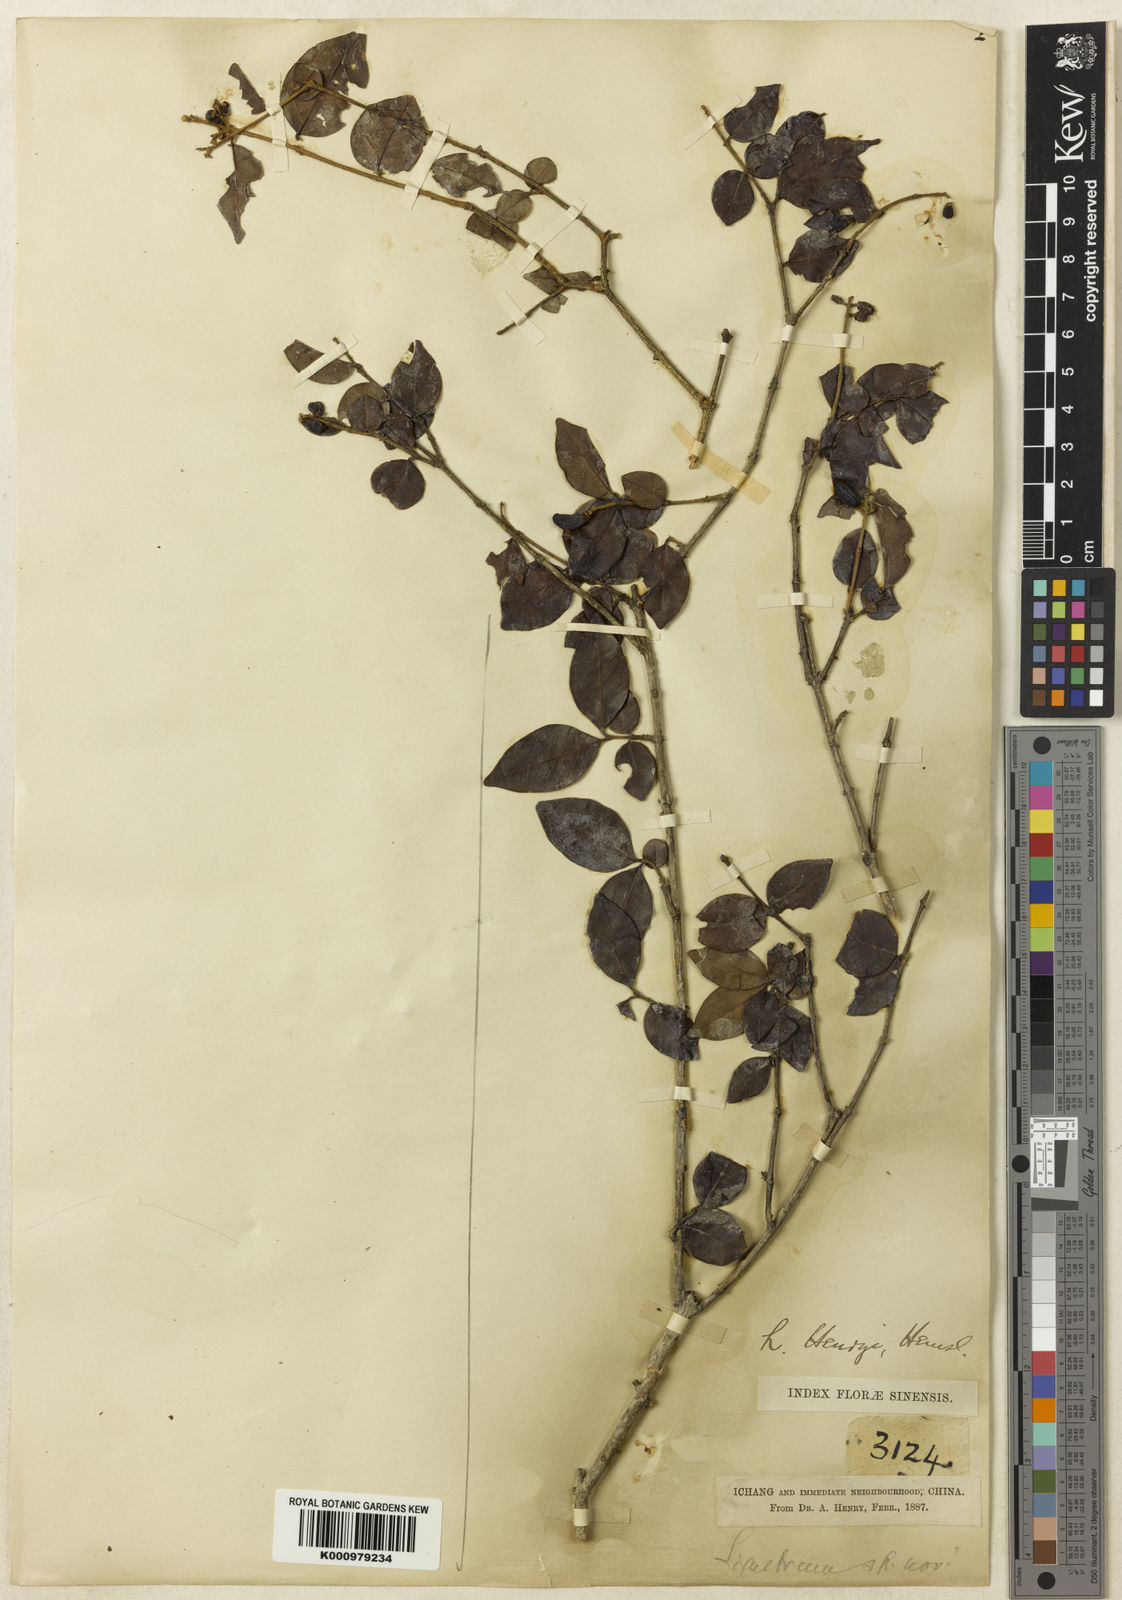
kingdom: Plantae
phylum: Tracheophyta
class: Magnoliopsida
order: Lamiales
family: Oleaceae
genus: Ligustrum
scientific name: Ligustrum henryi
